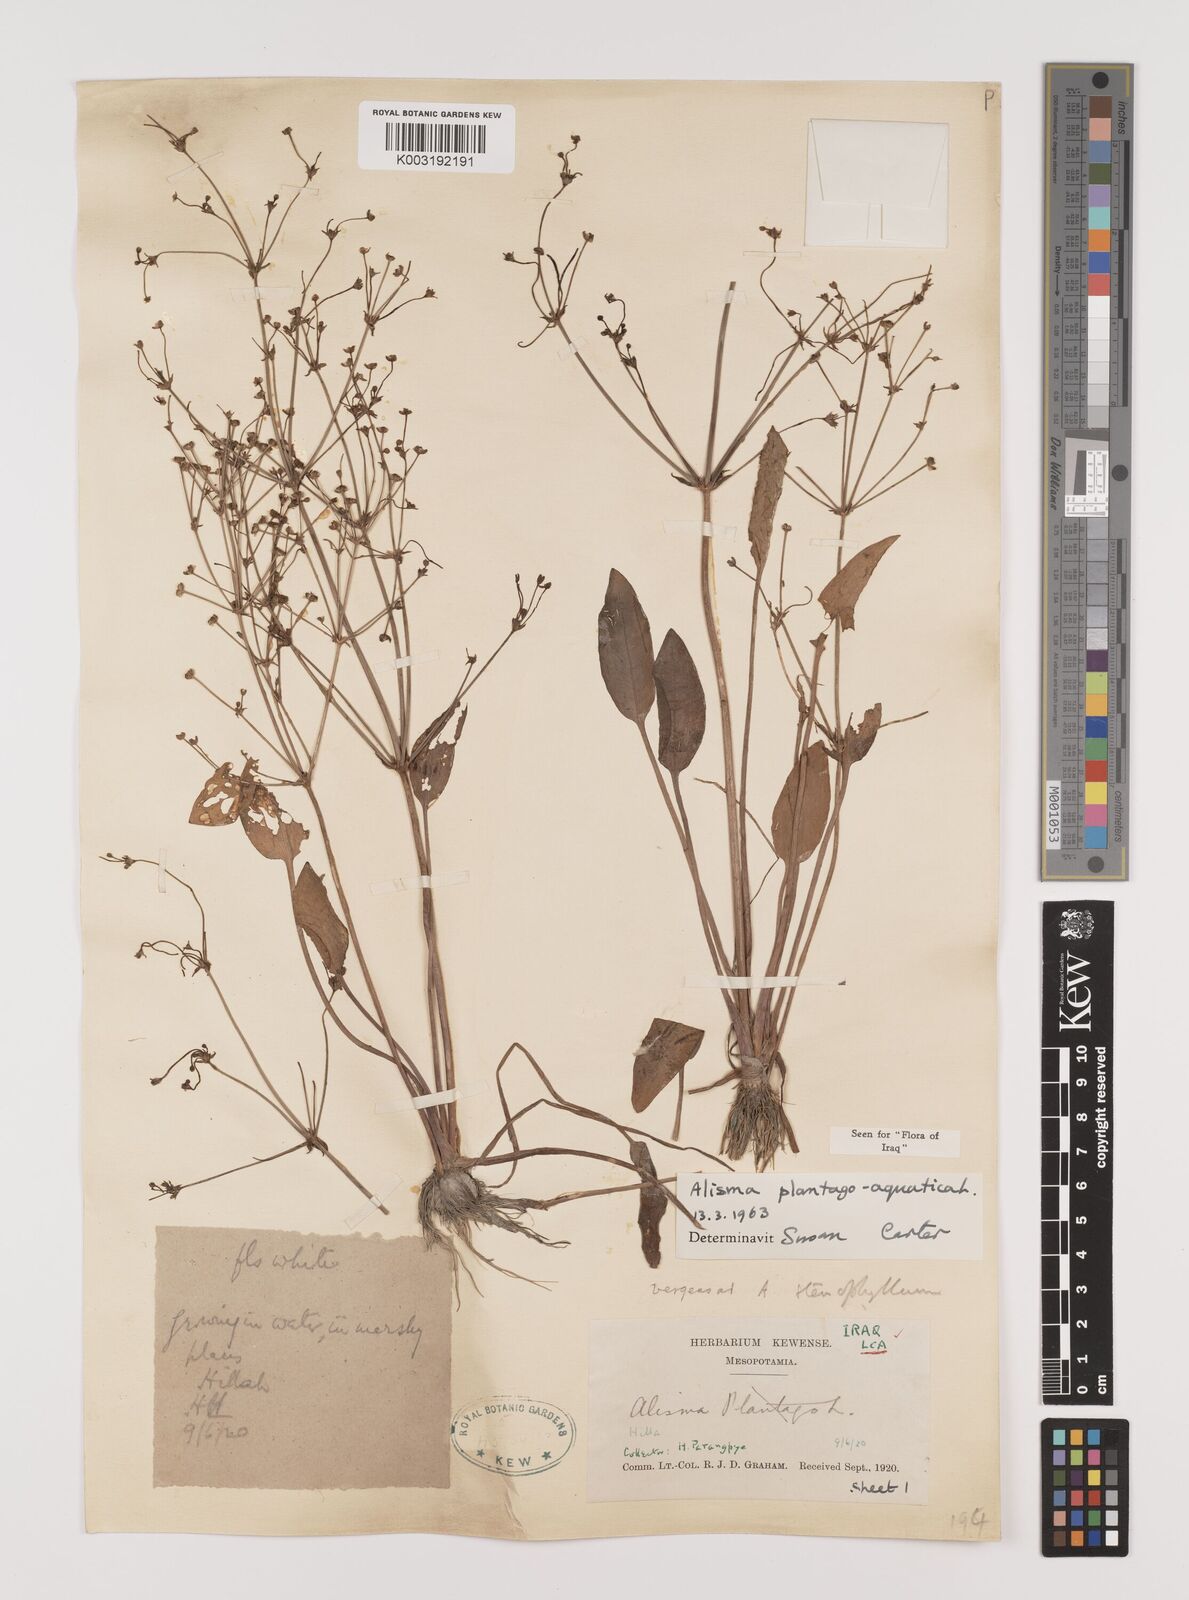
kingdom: Plantae
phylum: Tracheophyta
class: Liliopsida
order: Alismatales
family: Alismataceae
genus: Alisma
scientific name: Alisma plantago-aquatica
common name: Water-plantain
